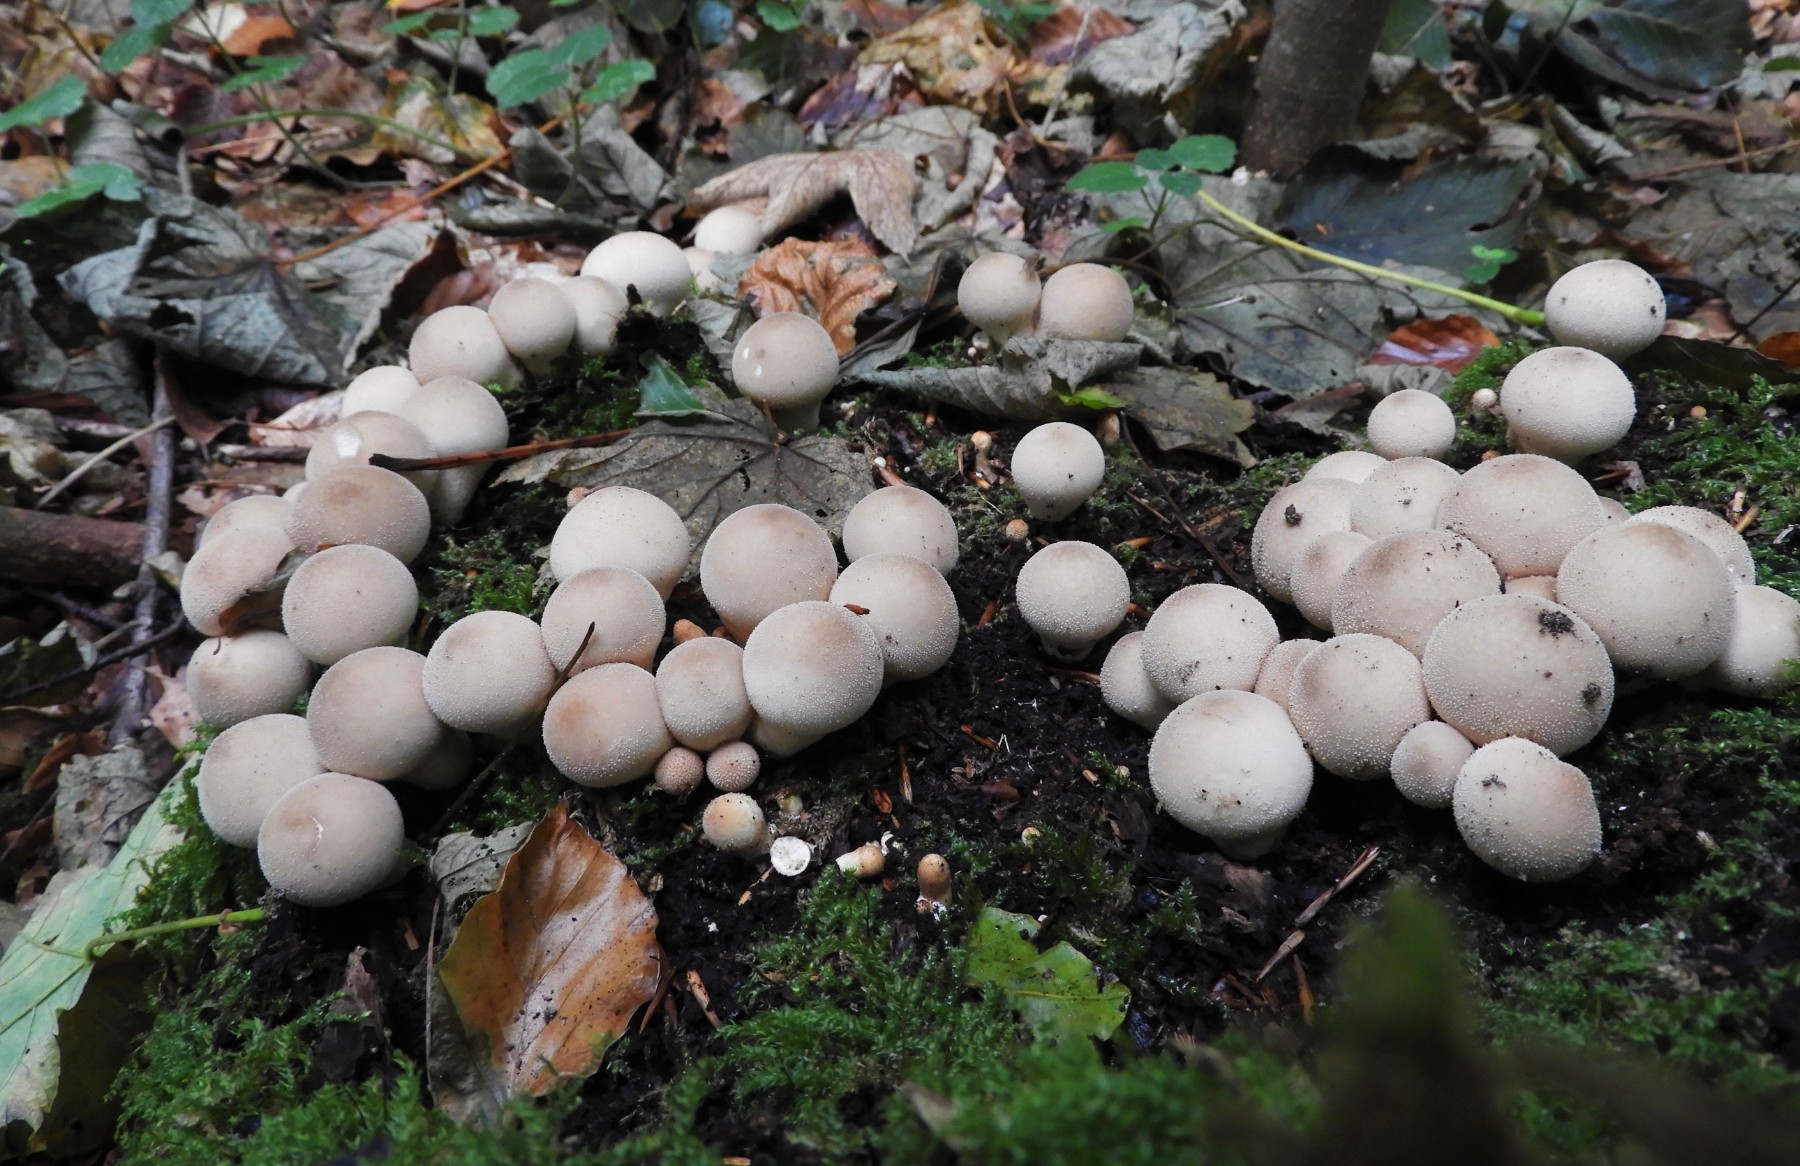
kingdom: Fungi
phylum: Basidiomycota
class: Agaricomycetes
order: Agaricales
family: Lycoperdaceae
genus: Apioperdon
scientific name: Apioperdon pyriforme
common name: pære-støvbold
